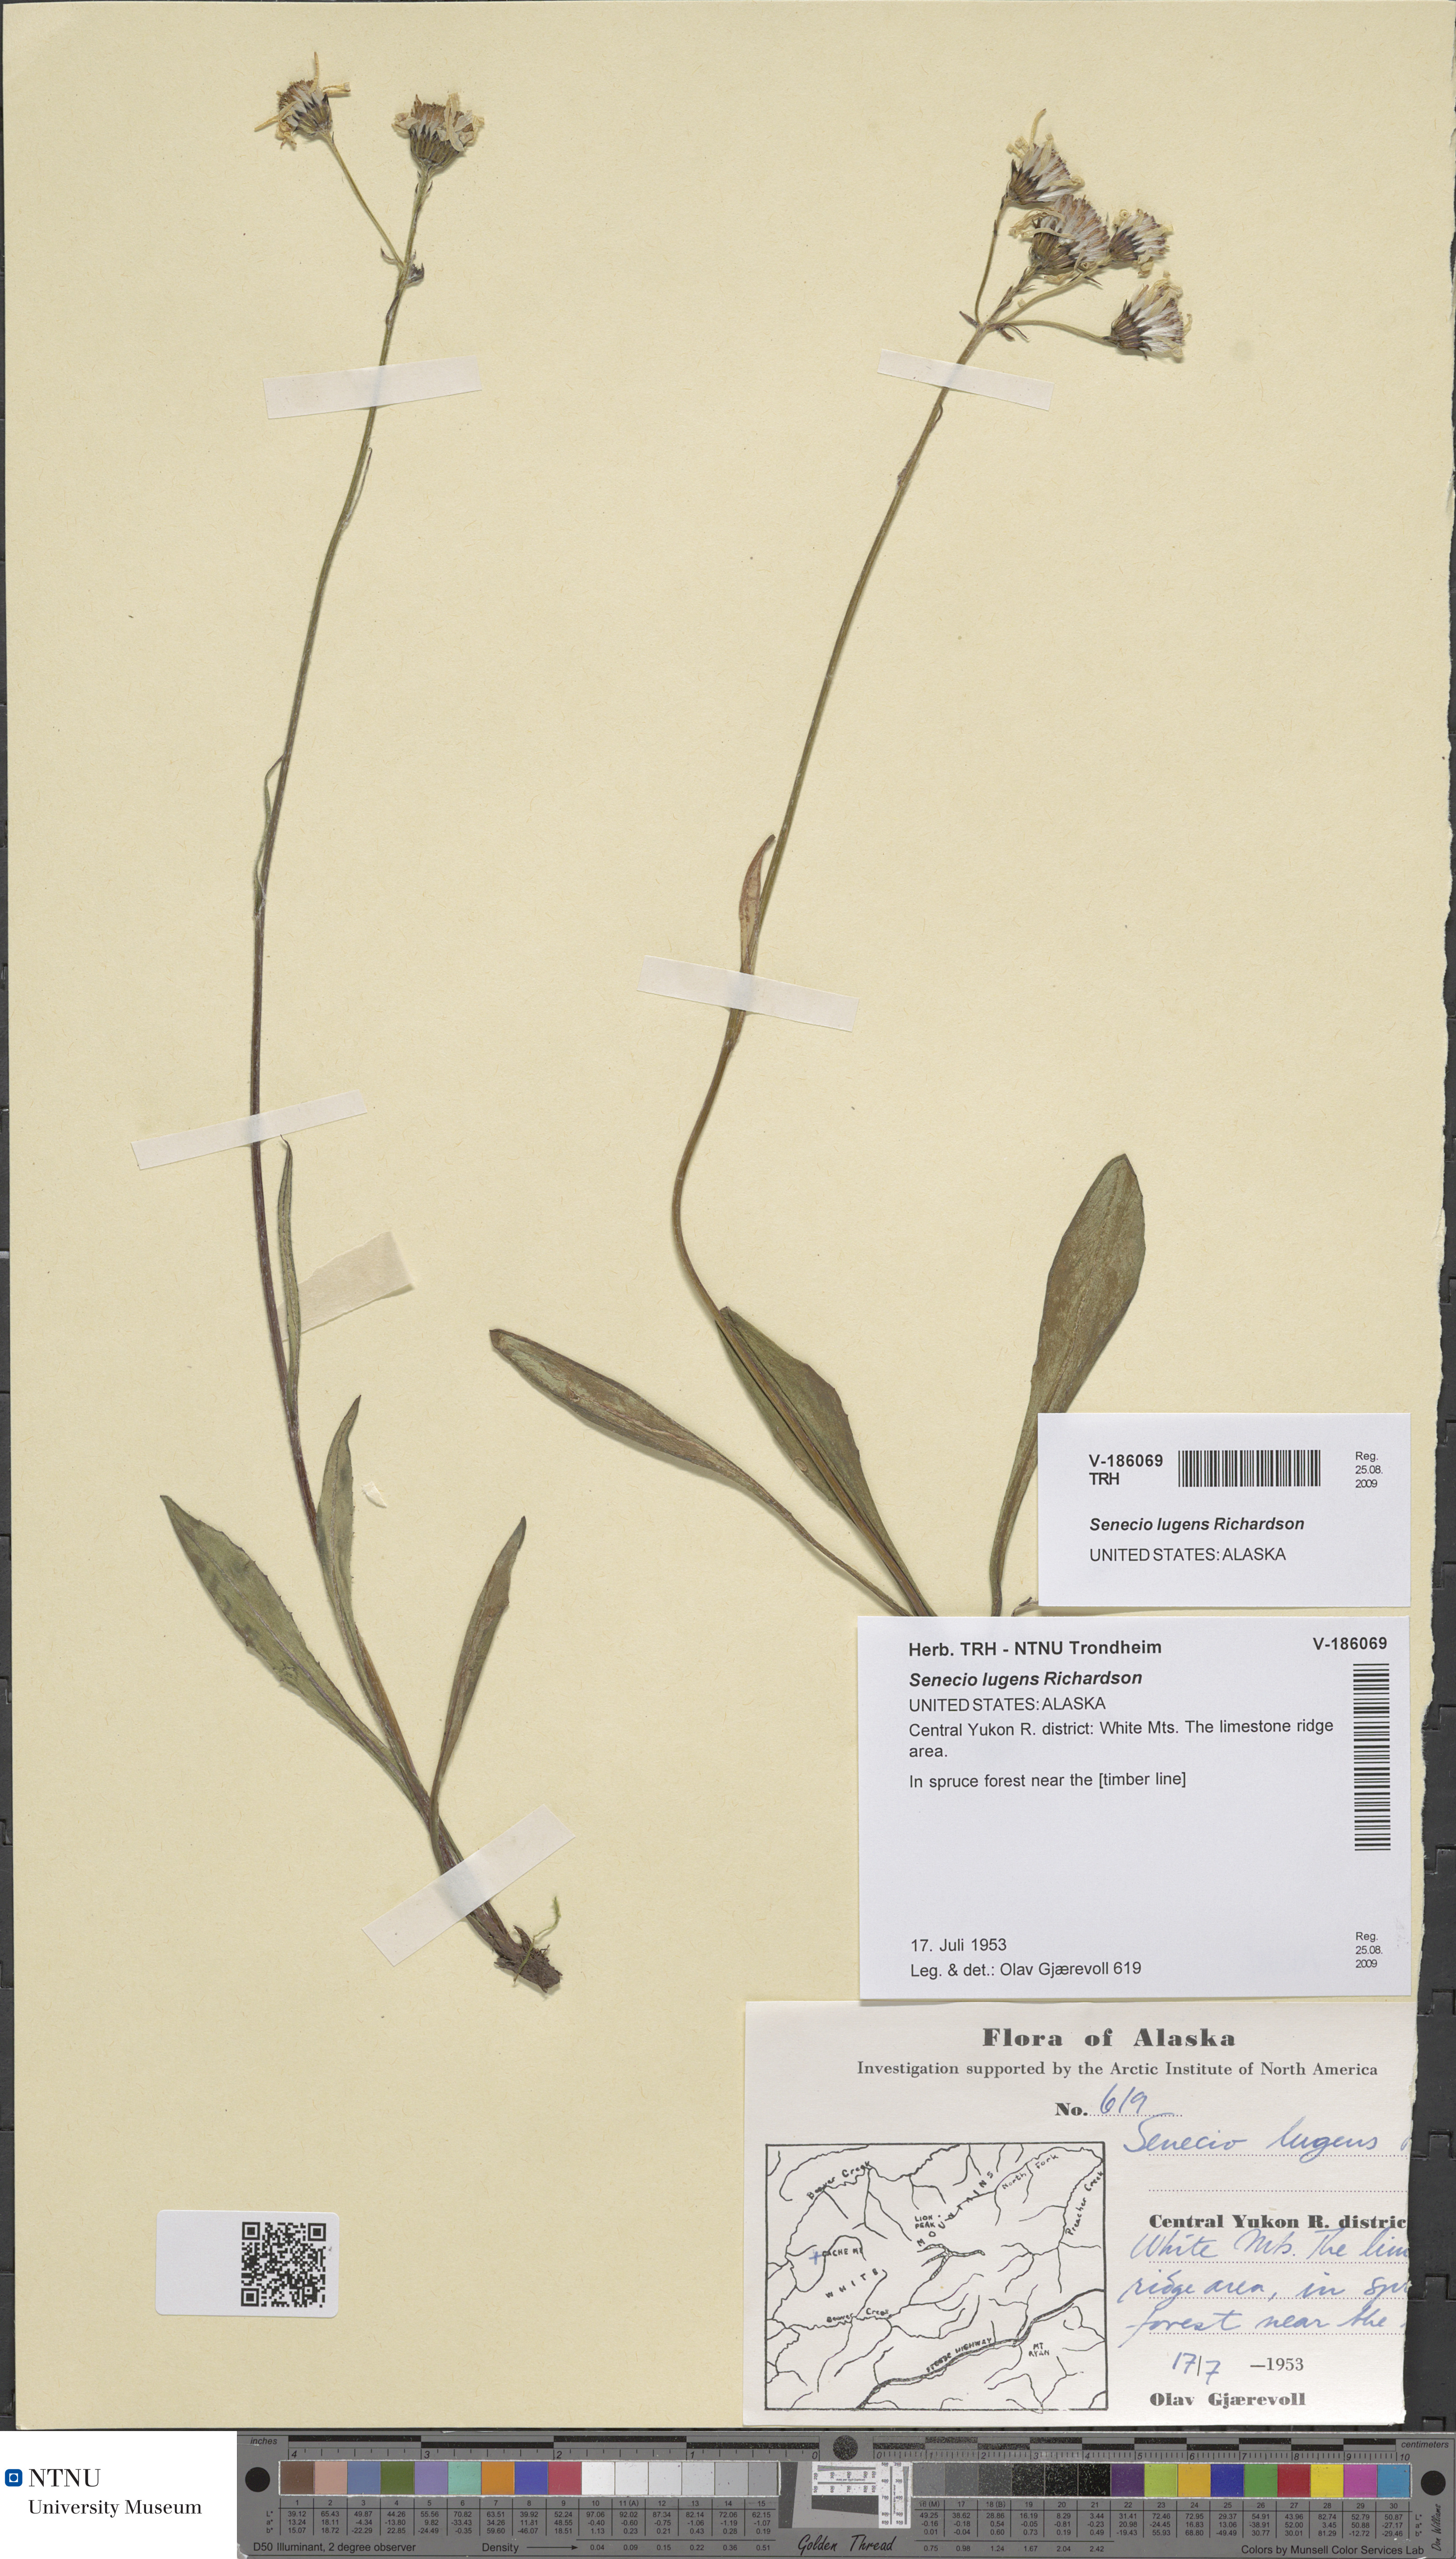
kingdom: Plantae
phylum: Tracheophyta
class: Magnoliopsida
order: Asterales
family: Asteraceae
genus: Senecio
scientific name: Senecio lugens
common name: Black-tip groundsel
